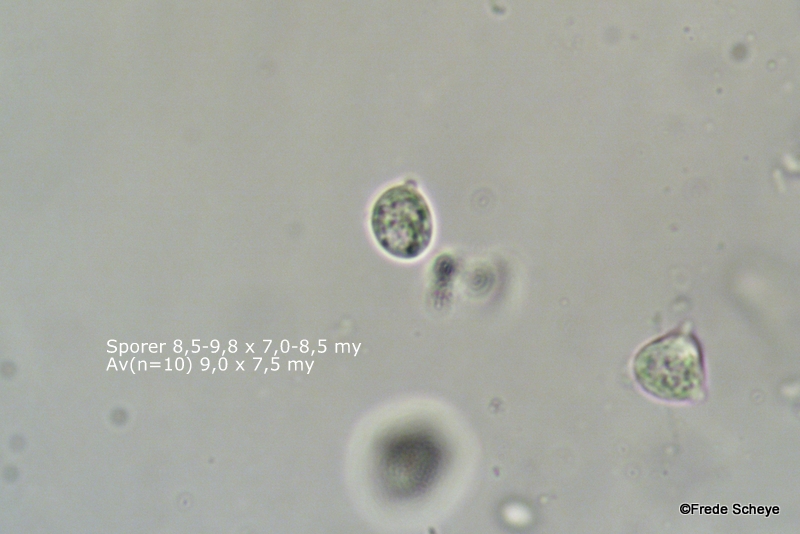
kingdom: Fungi
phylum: Basidiomycota
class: Tremellomycetes
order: Tremellales
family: Tremellaceae
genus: Phaeotremella
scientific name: Phaeotremella frondosa
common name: kæmpe-bævresvamp
